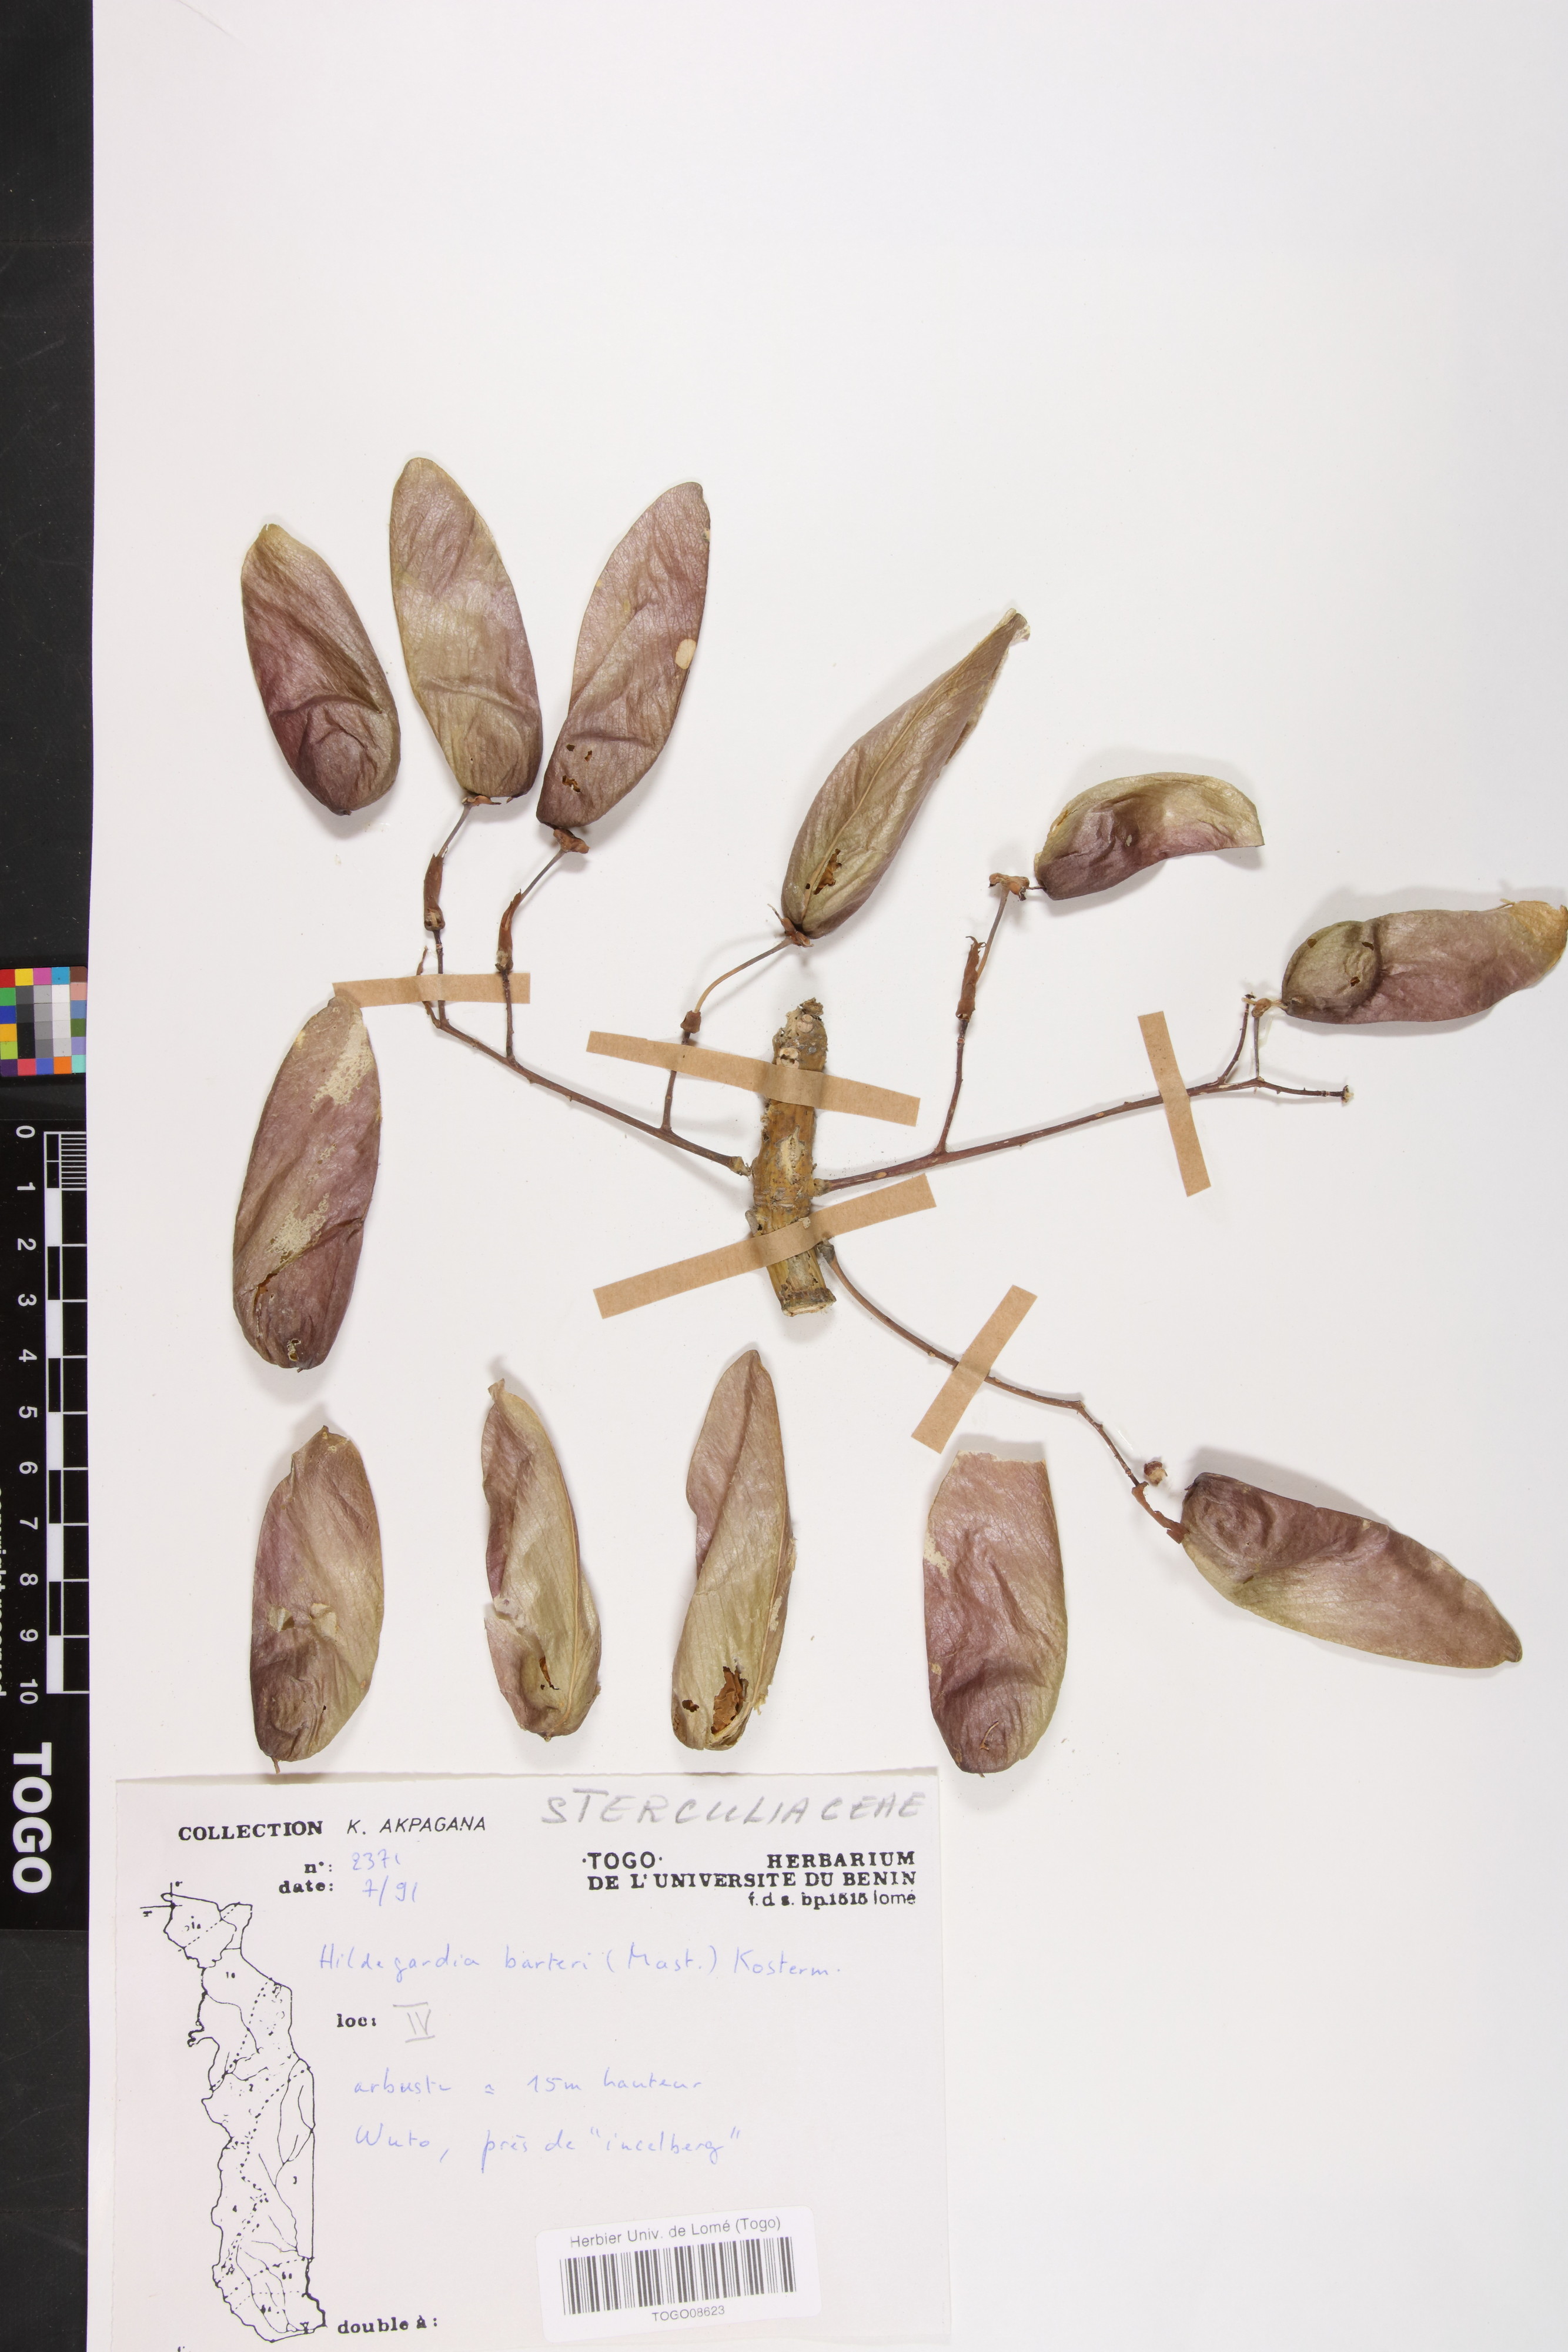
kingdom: Plantae
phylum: Tracheophyta
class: Magnoliopsida
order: Malvales
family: Malvaceae
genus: Hildegardia
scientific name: Hildegardia barteri
